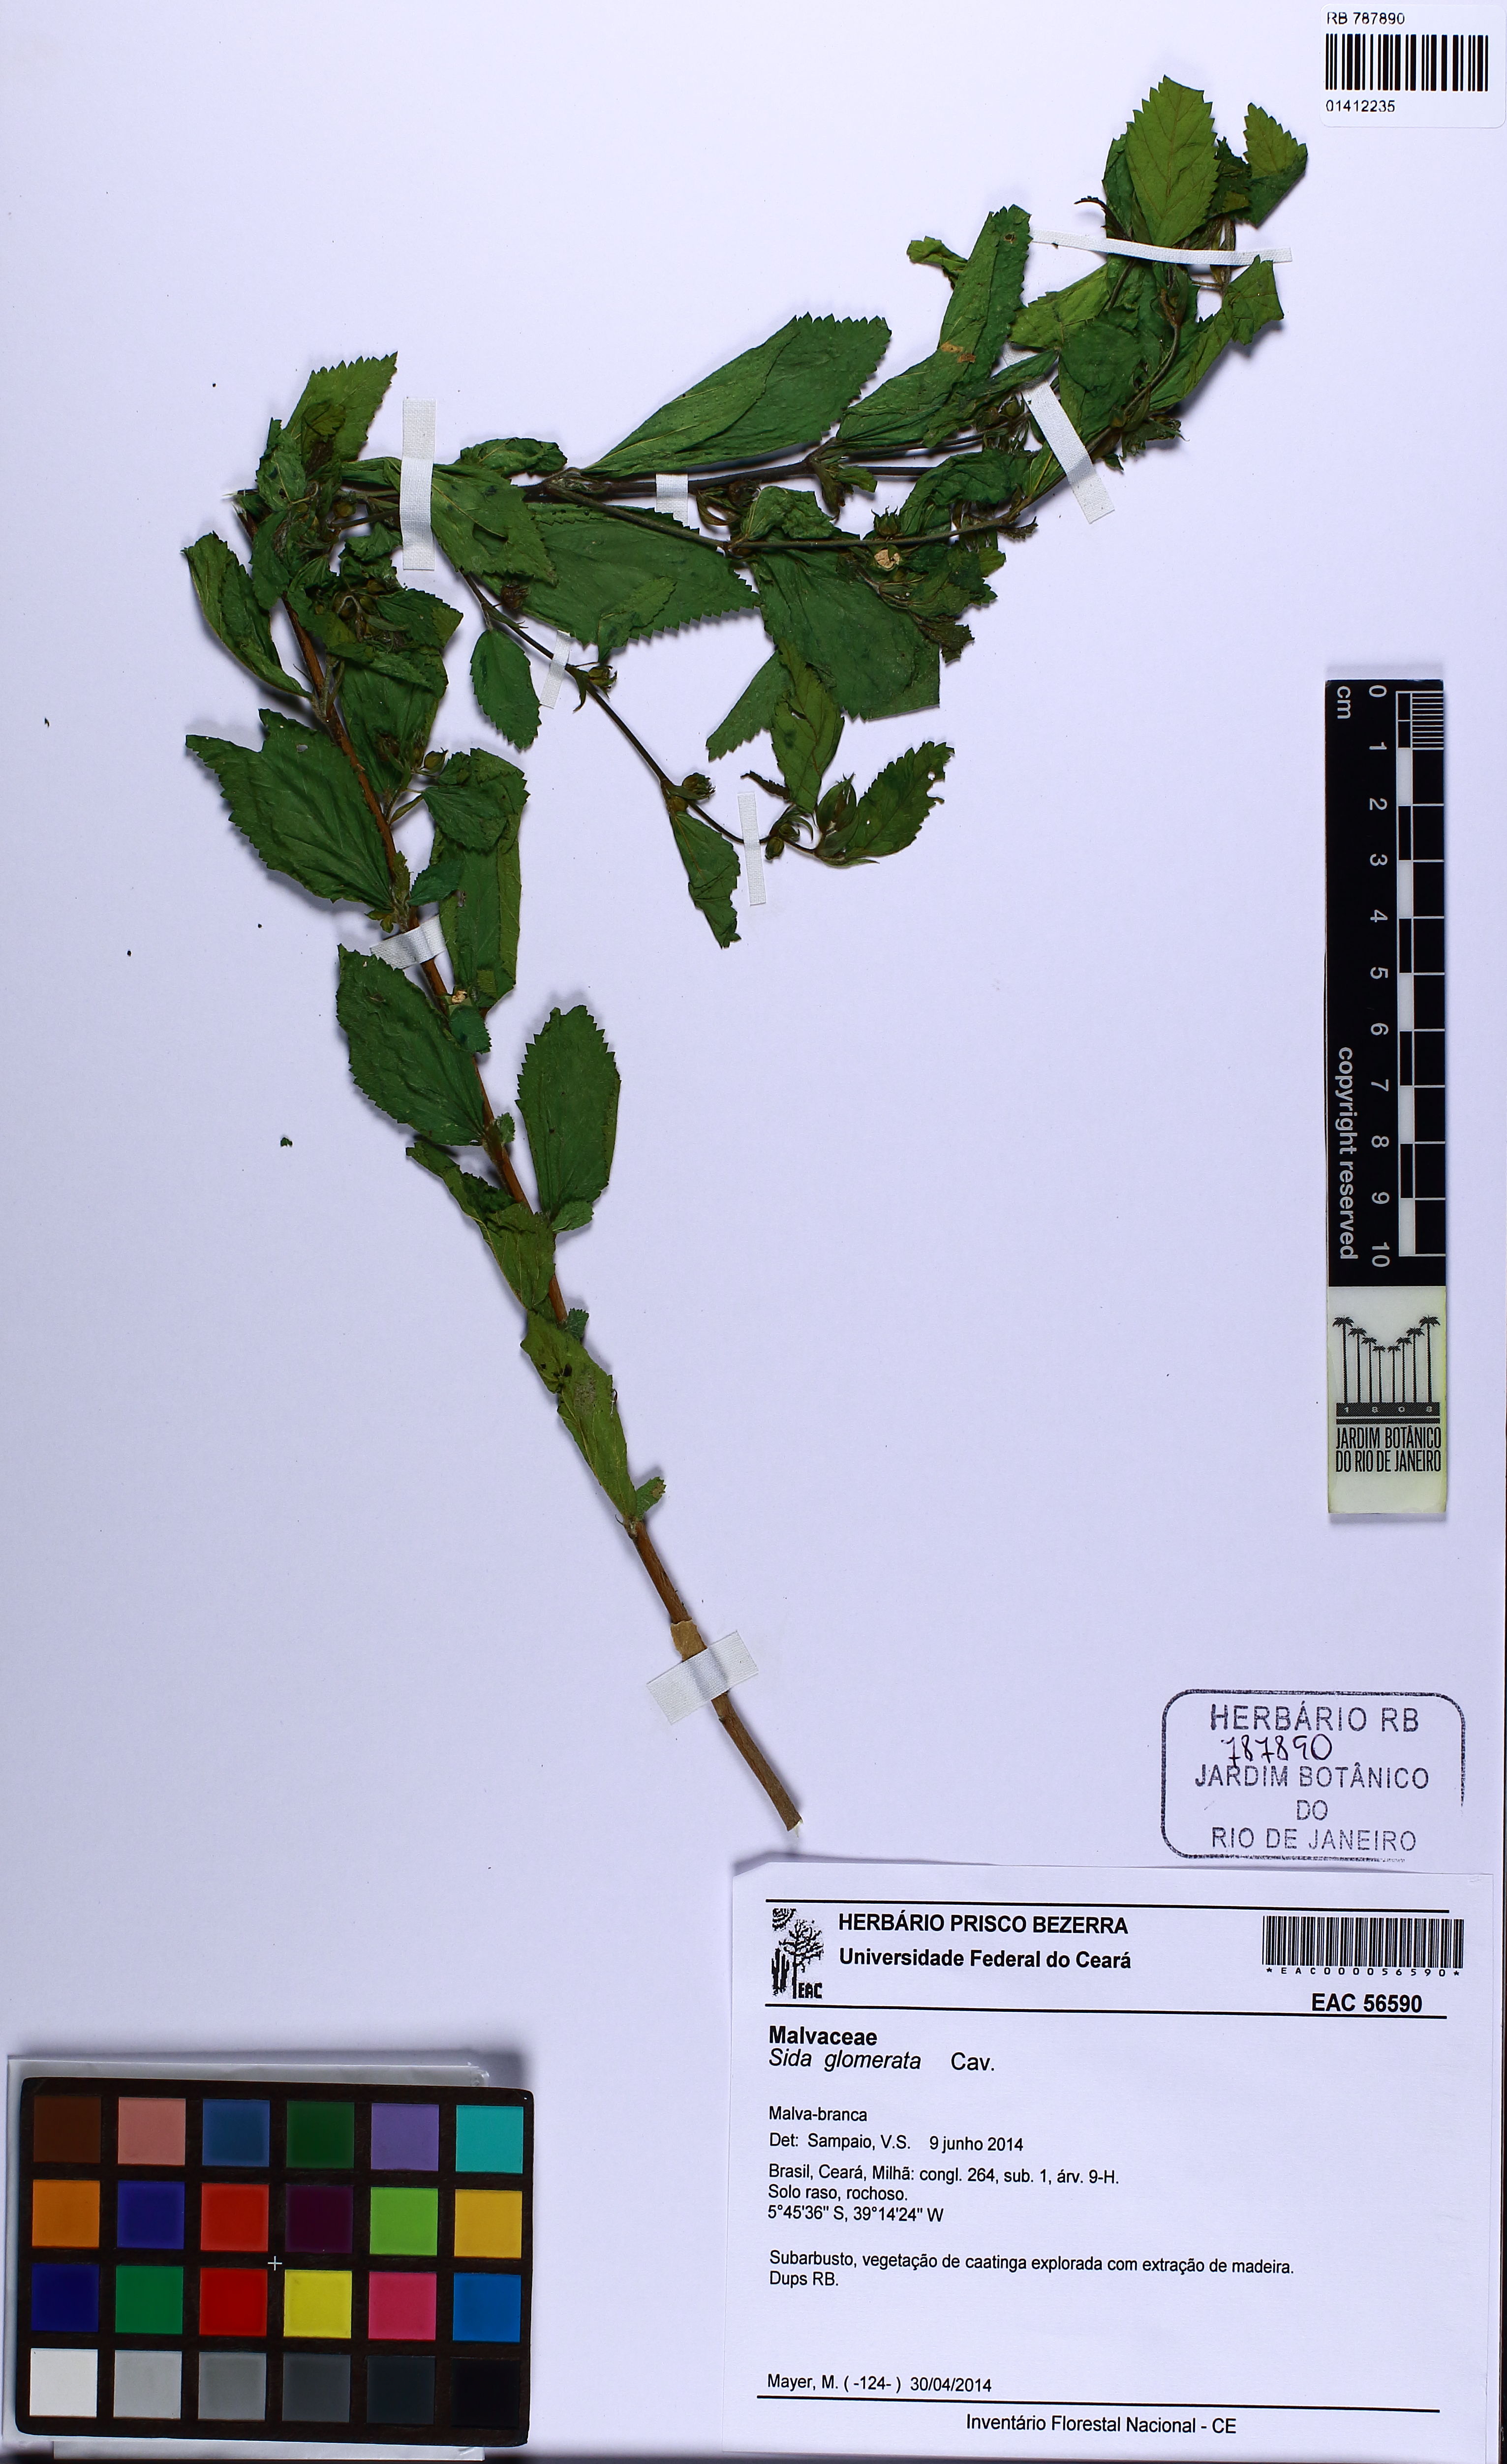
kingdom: Plantae
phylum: Tracheophyta
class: Magnoliopsida
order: Malvales
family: Malvaceae
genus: Sida
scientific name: Sida glomerata
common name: Clustered fanpetals
